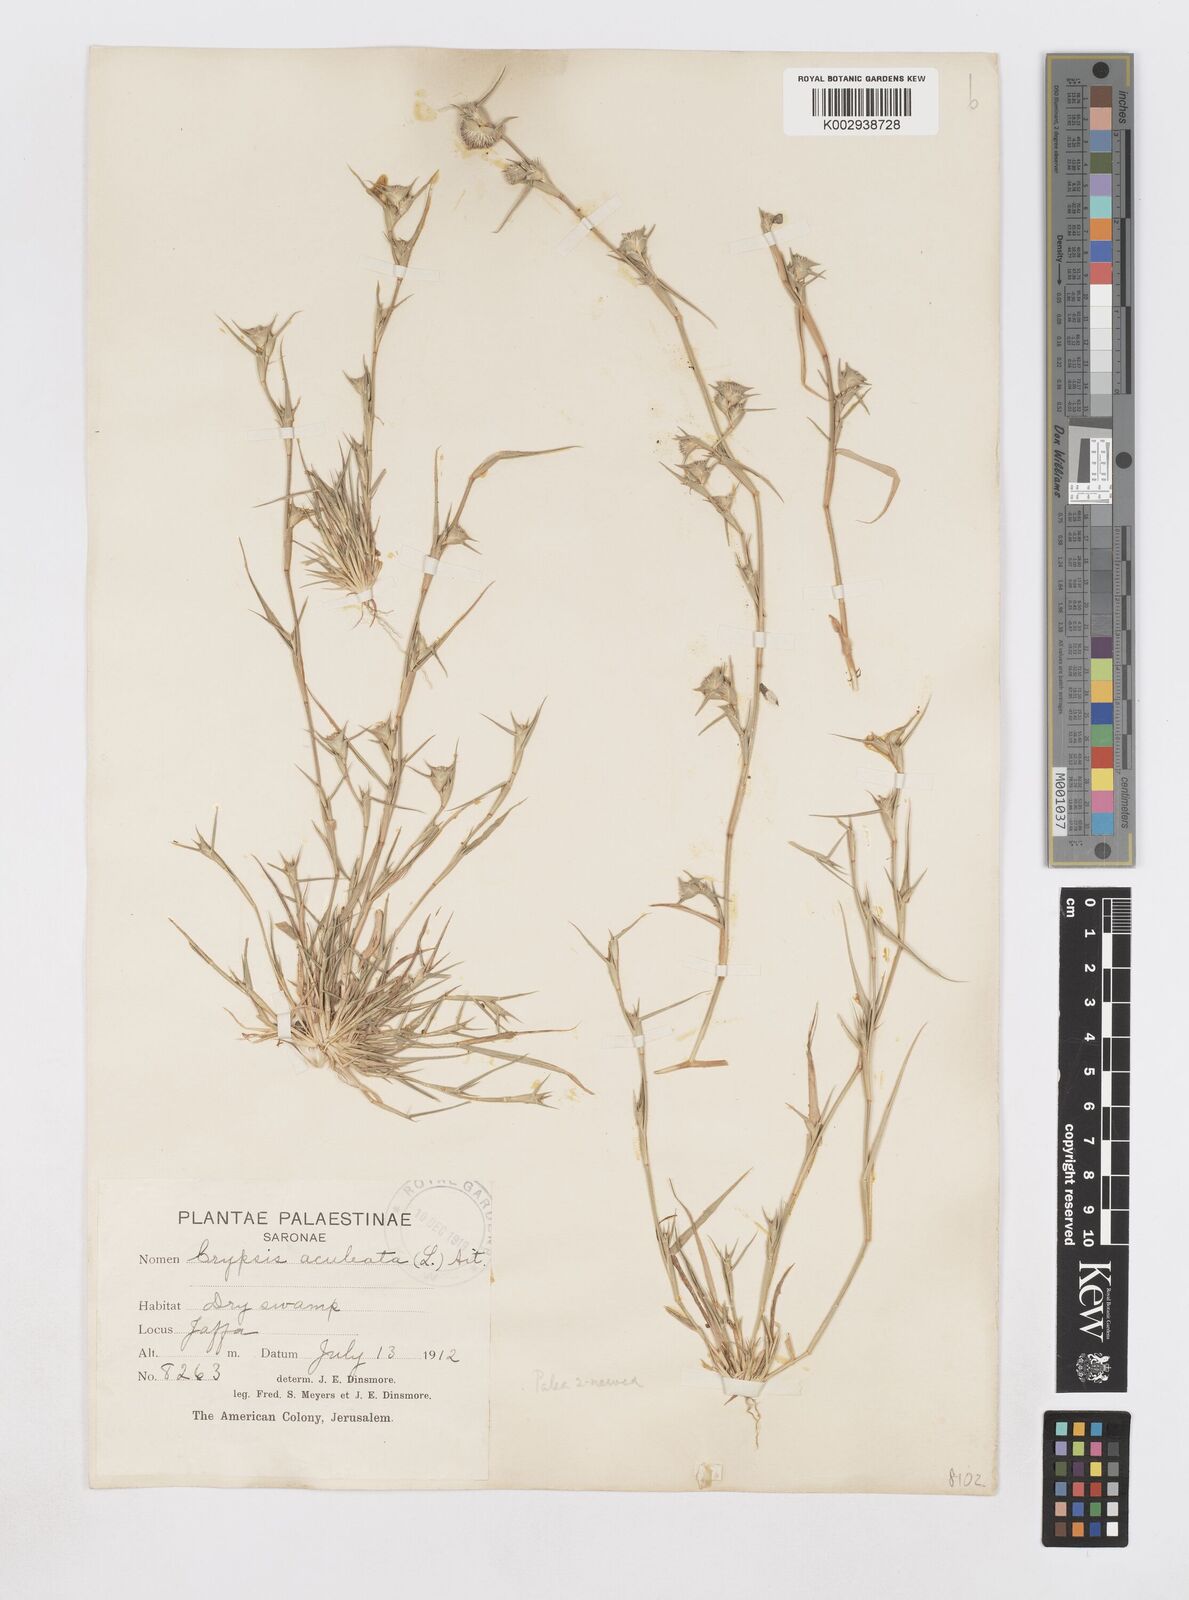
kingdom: Plantae
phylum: Tracheophyta
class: Liliopsida
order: Poales
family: Poaceae
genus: Sporobolus
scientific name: Sporobolus factorovskyi
